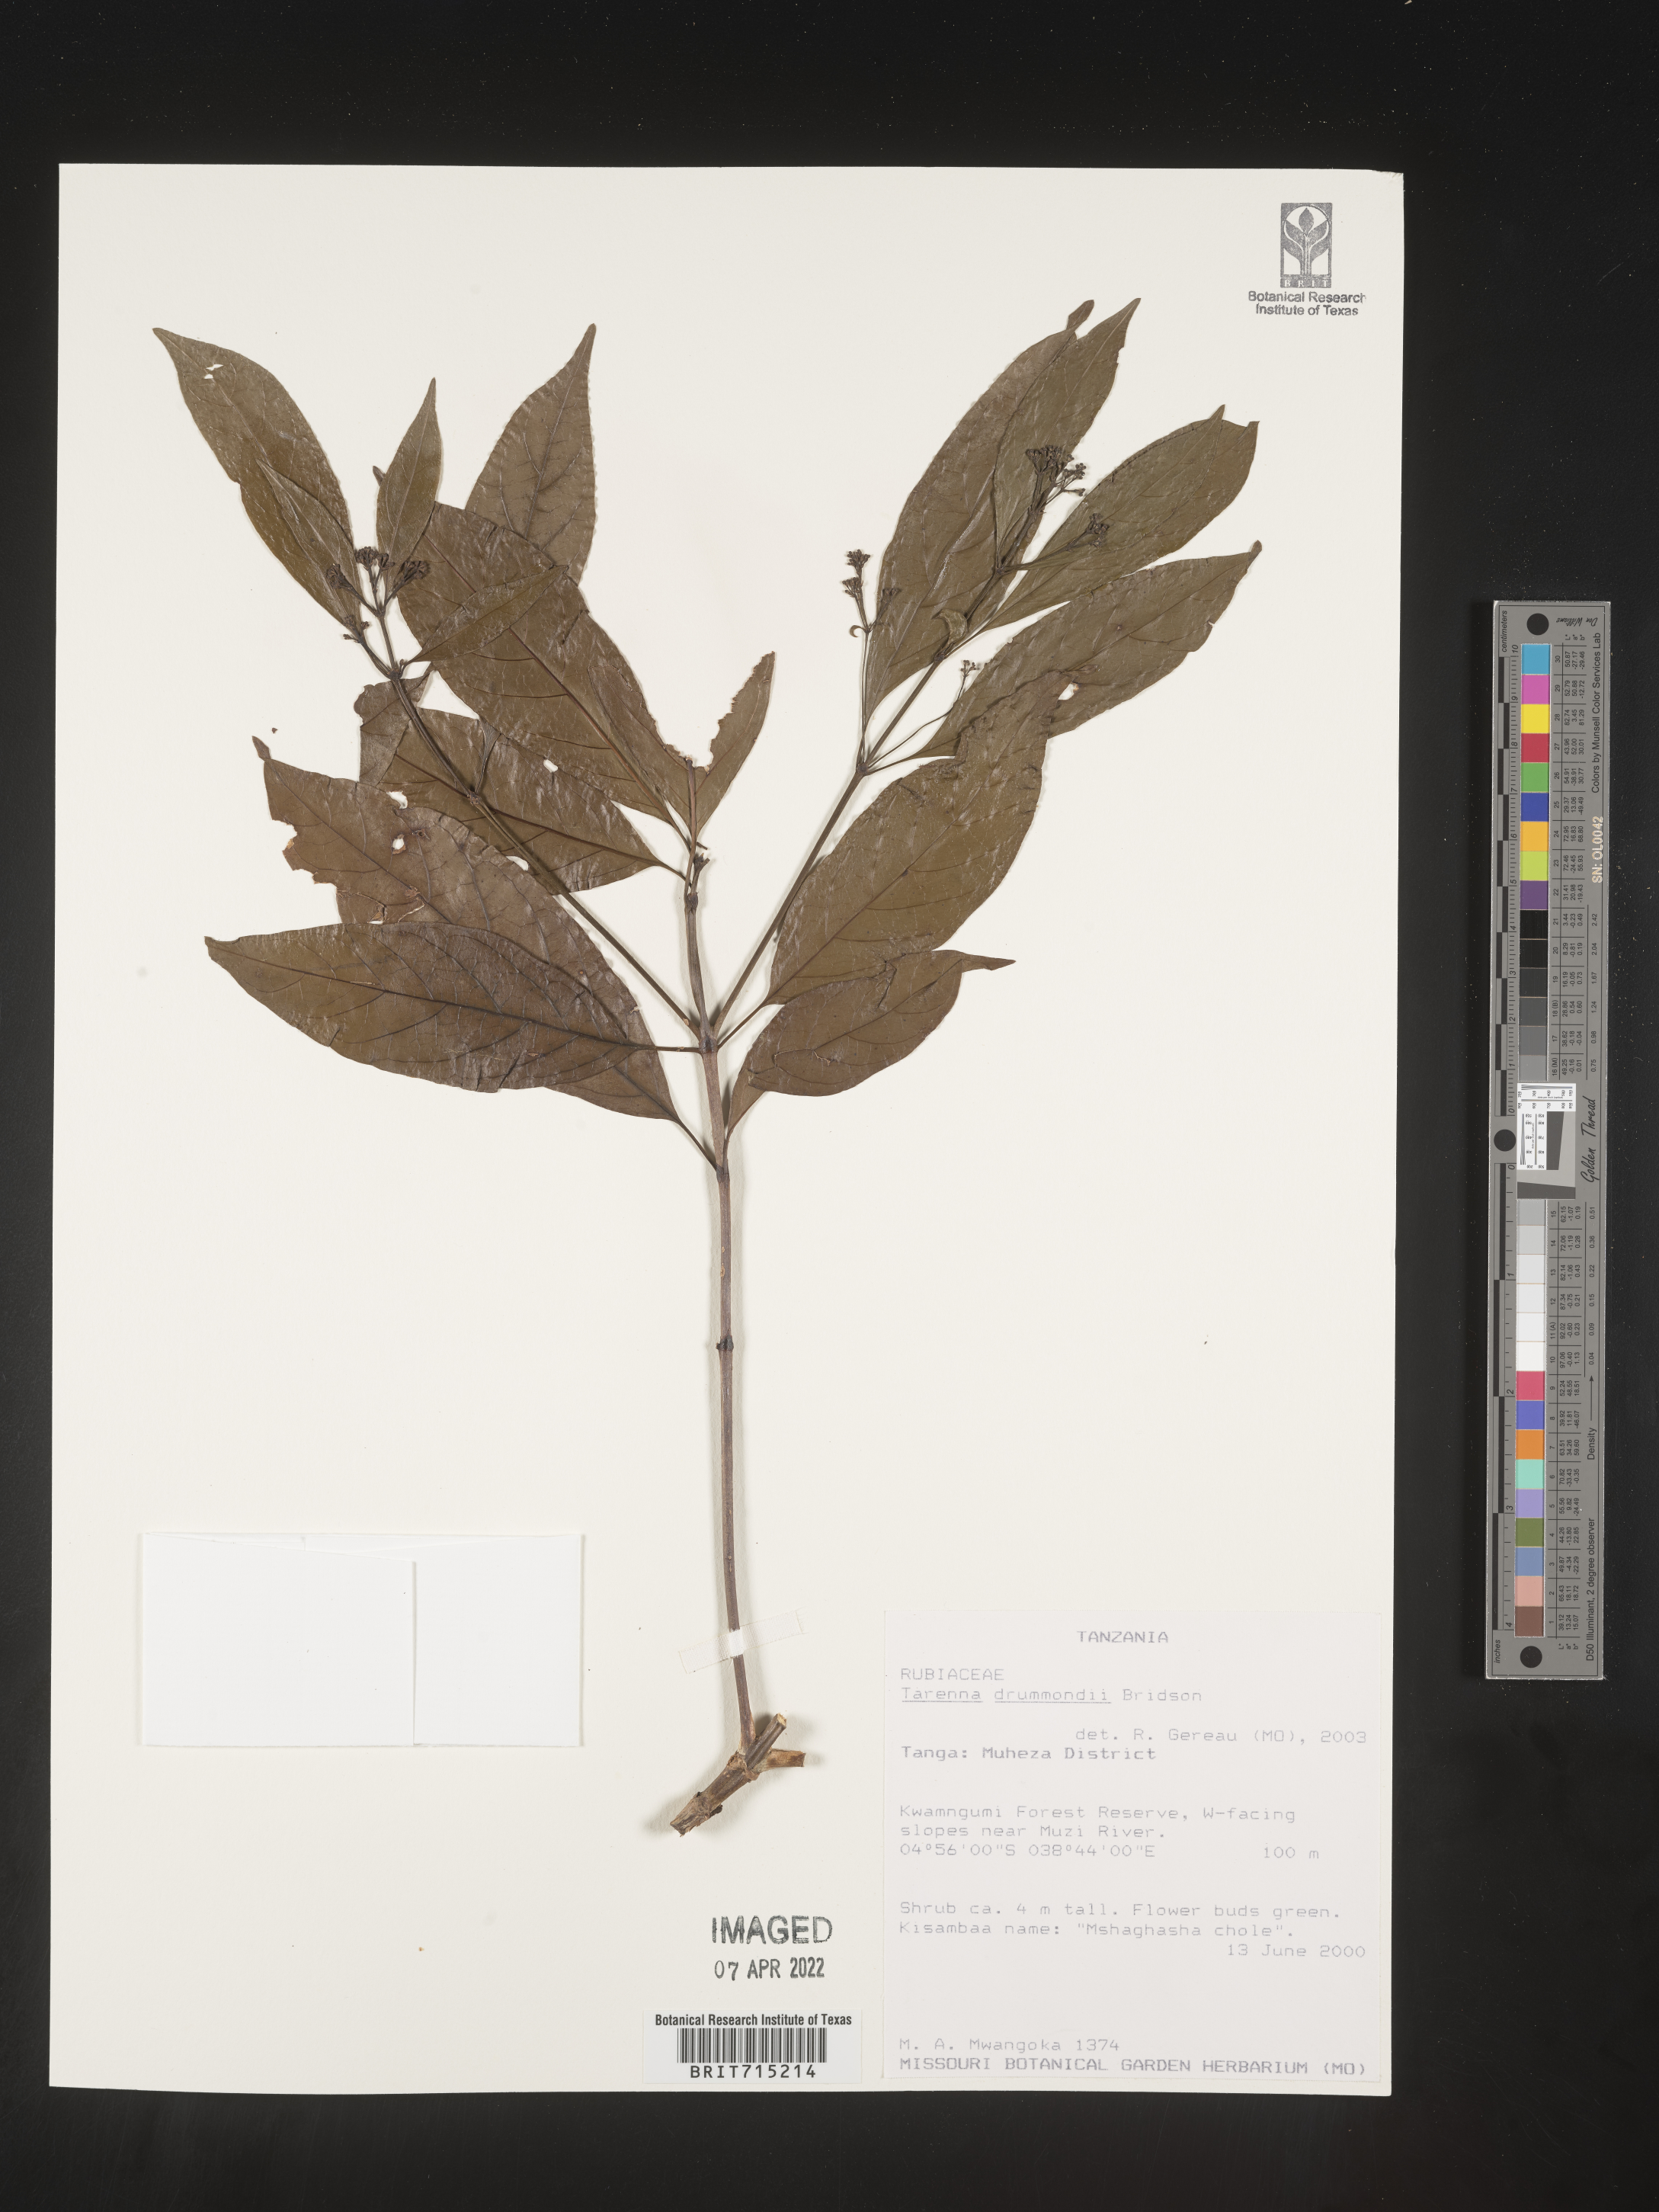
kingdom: Plantae
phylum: Tracheophyta
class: Magnoliopsida
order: Gentianales
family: Rubiaceae
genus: Tarenna
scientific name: Tarenna
